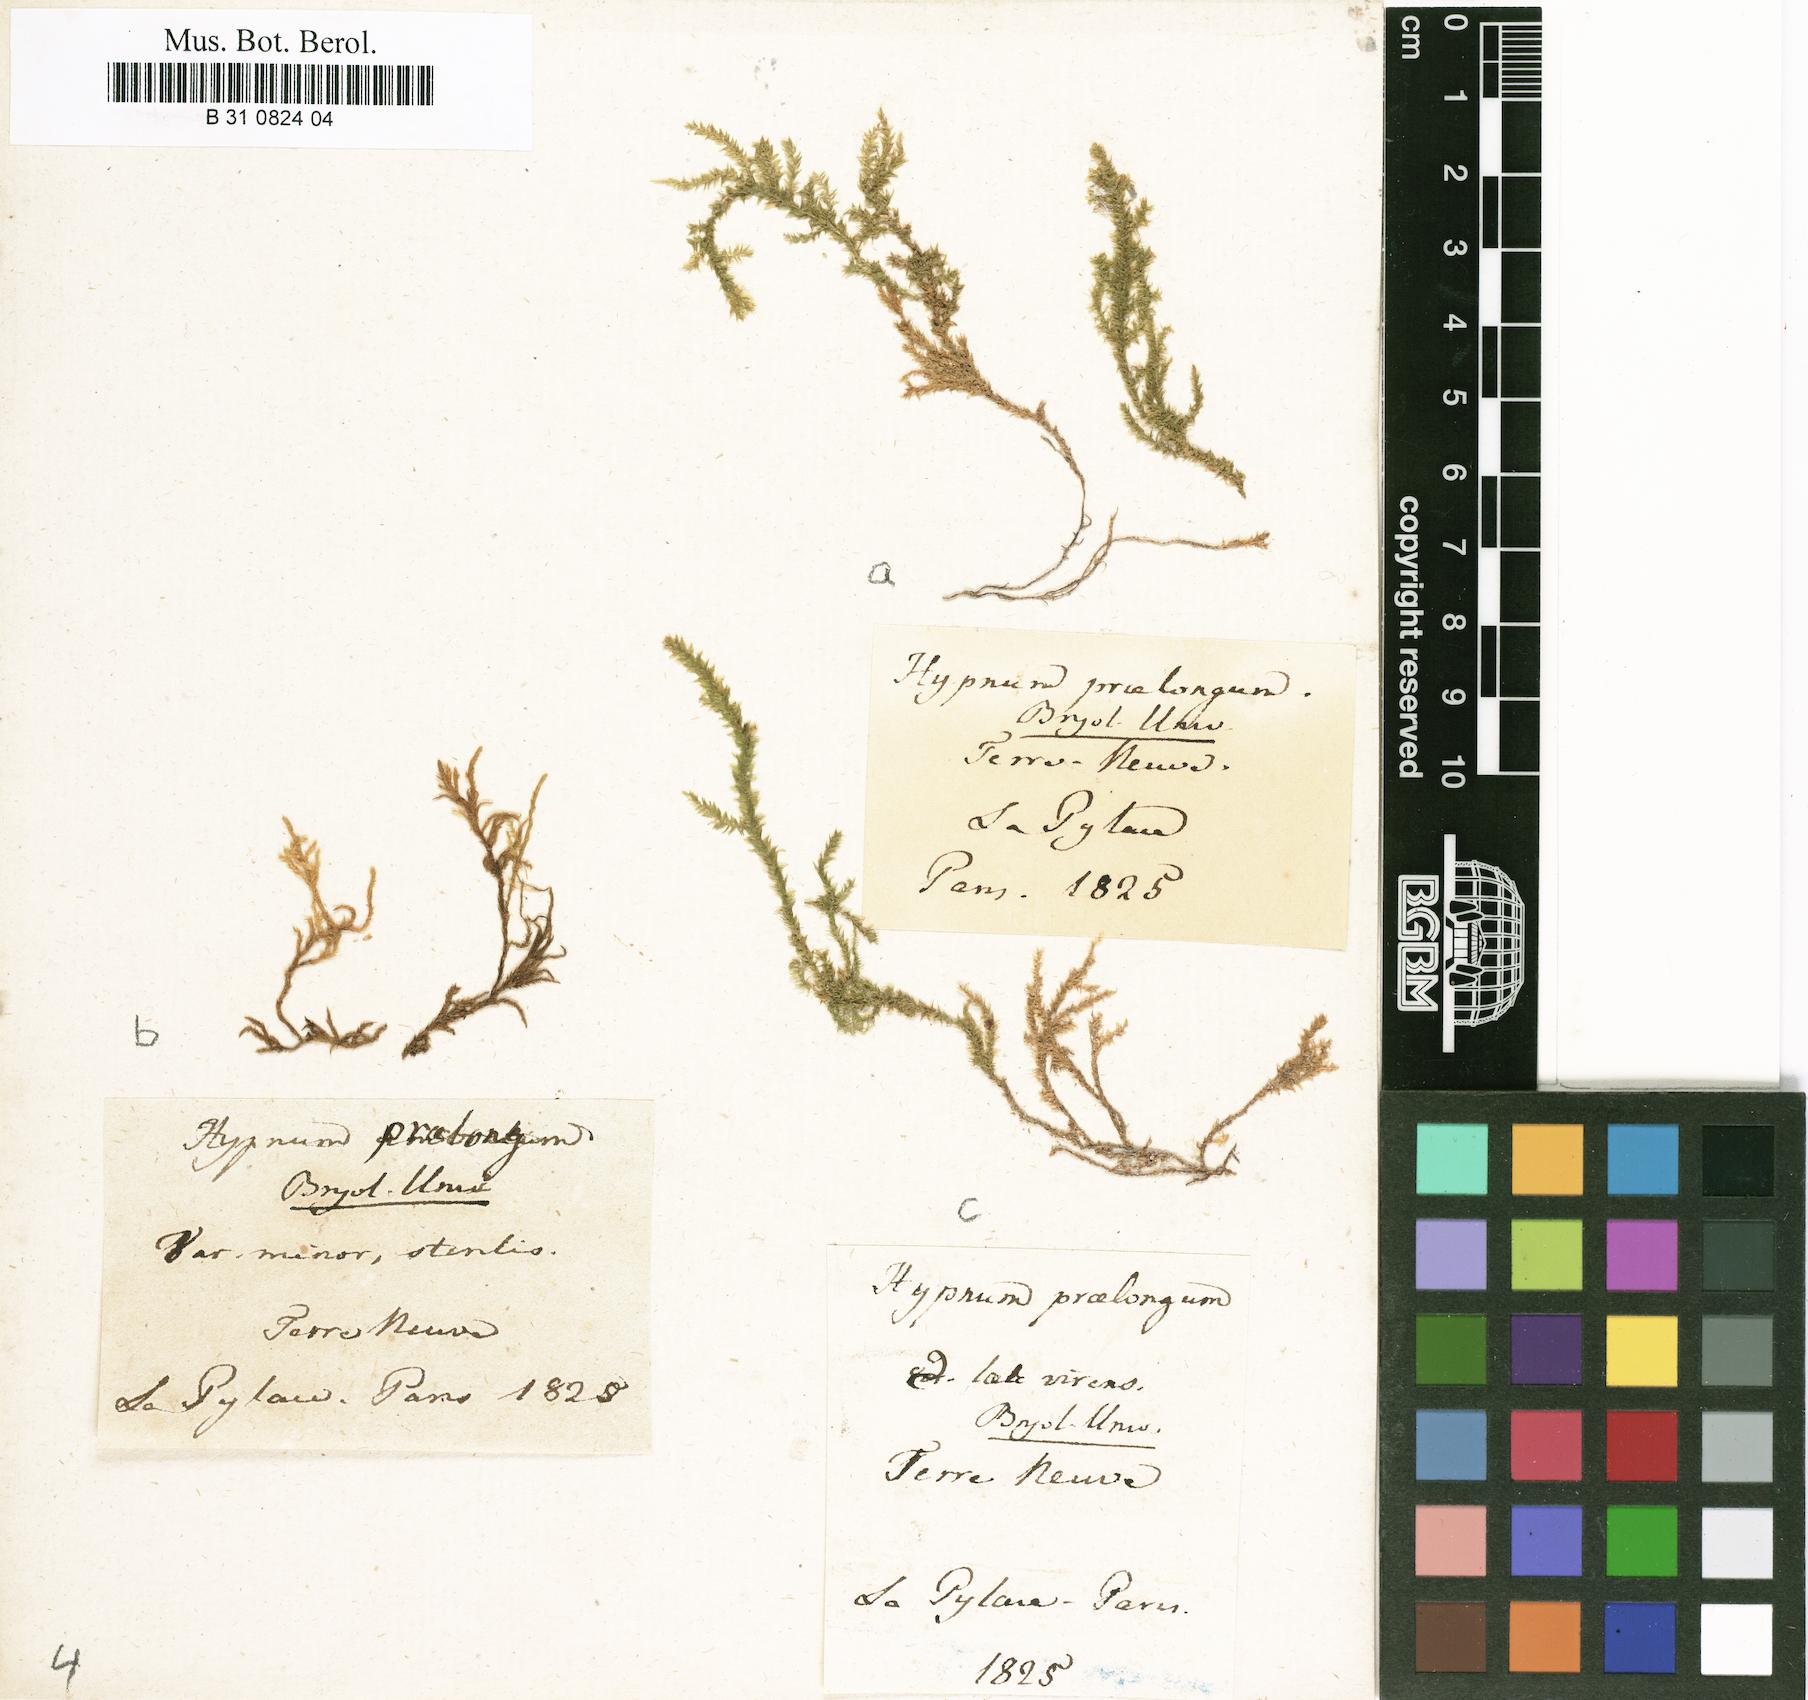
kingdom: Plantae
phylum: Bryophyta
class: Bryopsida
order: Hypnales
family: Brachytheciaceae
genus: Kindbergia
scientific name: Kindbergia praelonga
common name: Slender beaked moss
